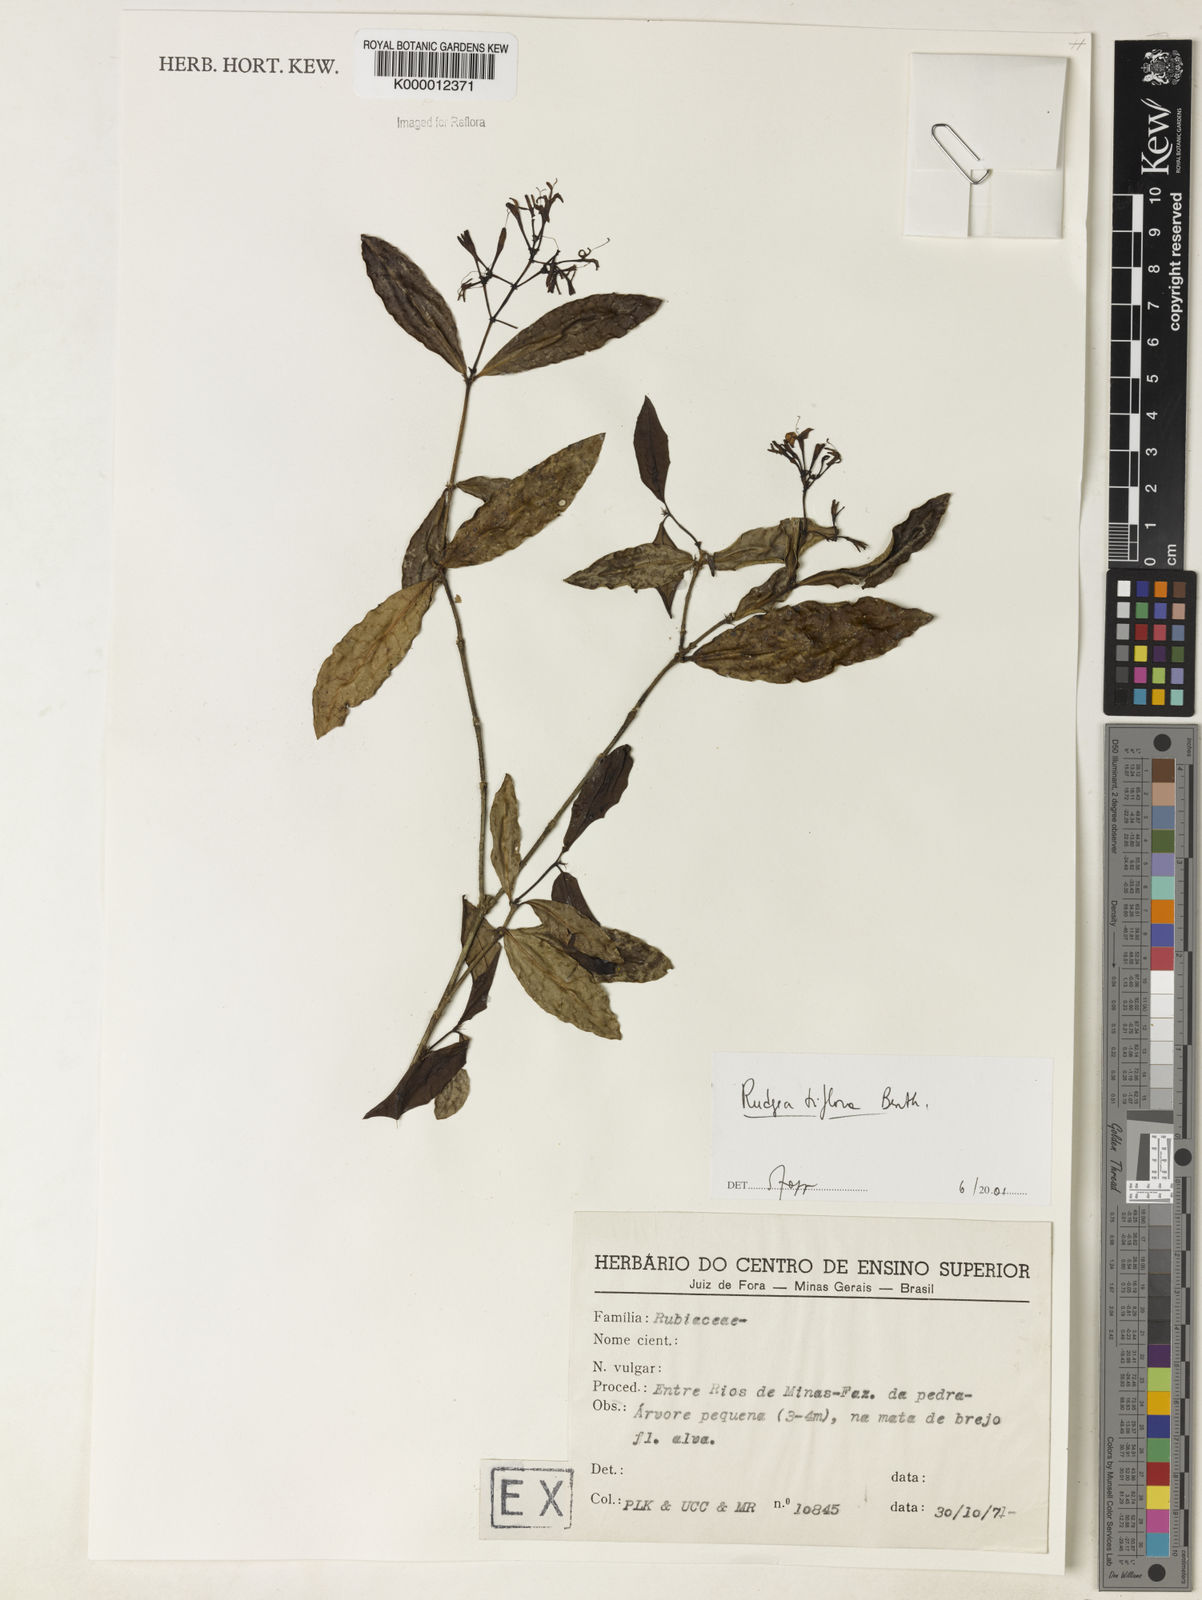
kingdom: Plantae
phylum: Tracheophyta
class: Magnoliopsida
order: Gentianales
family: Rubiaceae
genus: Rudgea
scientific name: Rudgea triflora
